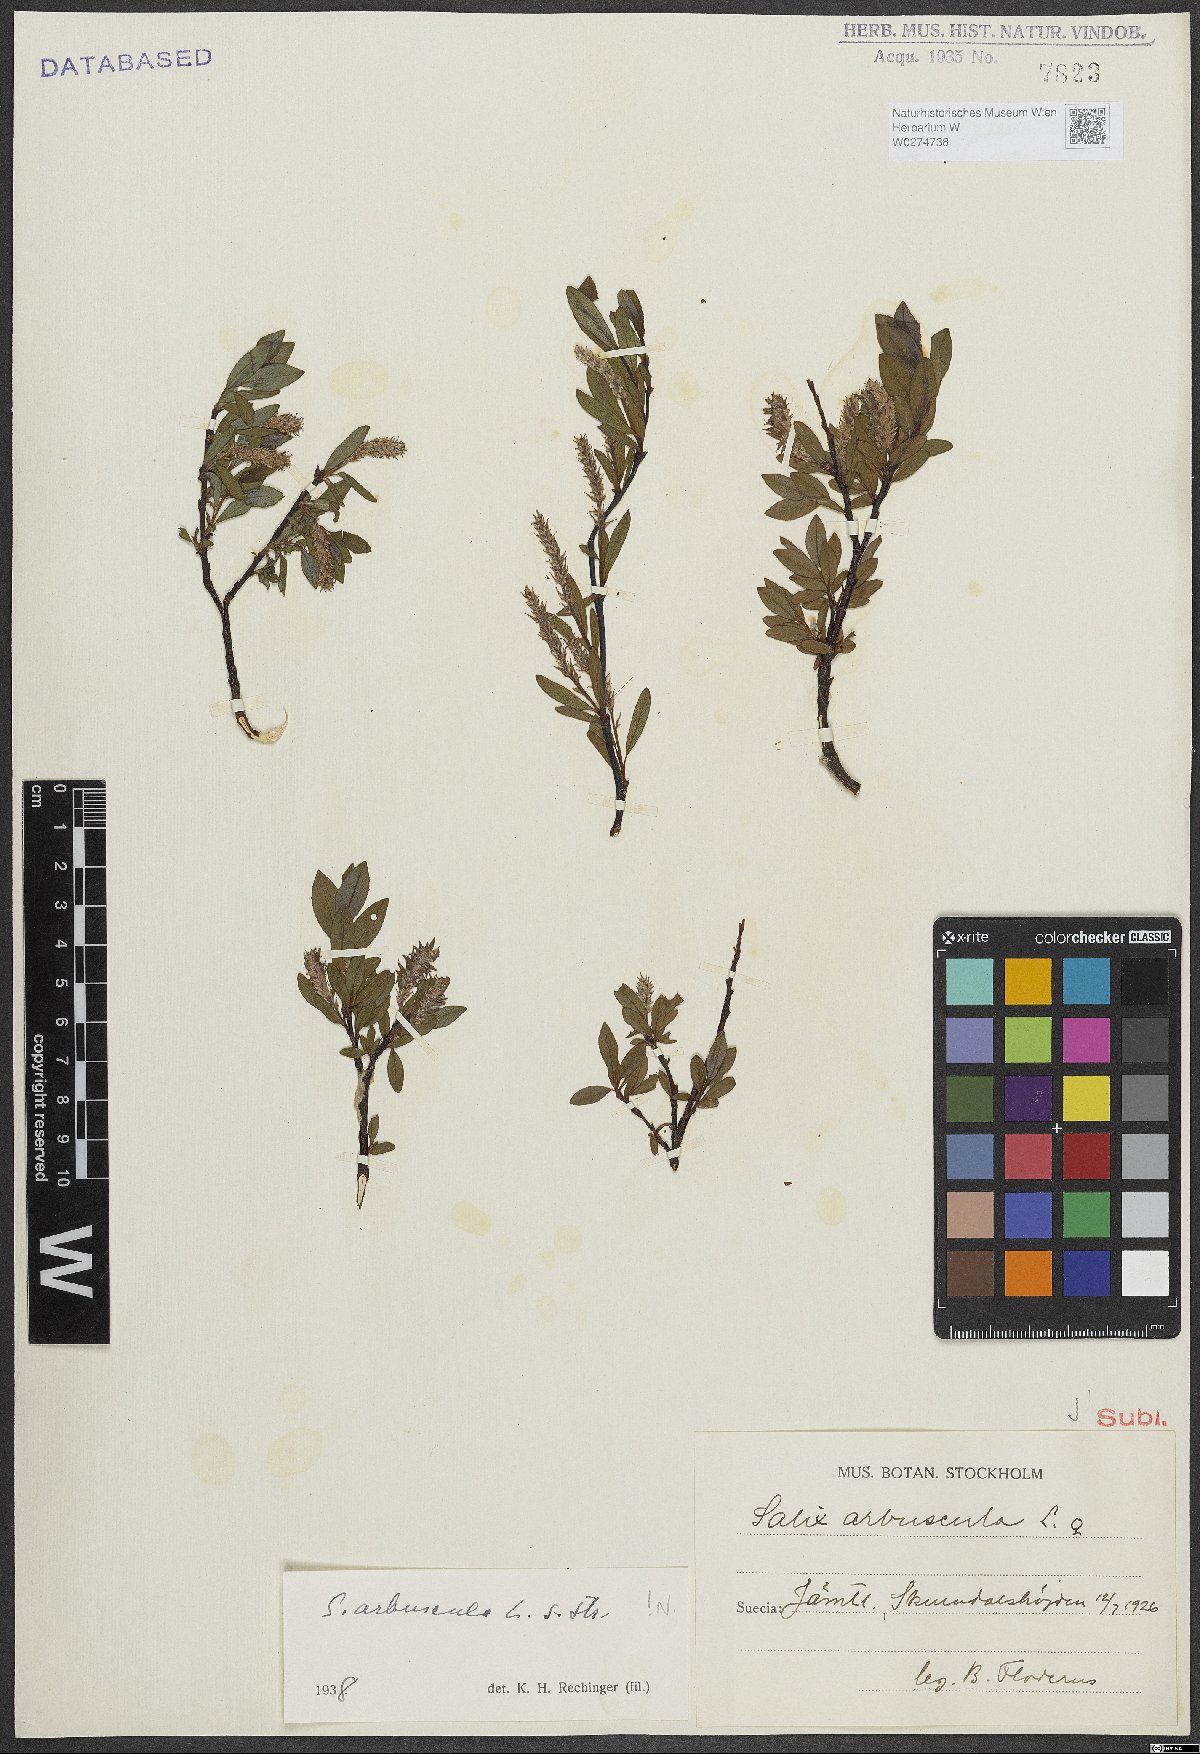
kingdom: Plantae
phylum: Tracheophyta
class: Magnoliopsida
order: Malpighiales
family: Salicaceae
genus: Salix
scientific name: Salix arbuscula
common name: Mountain willow
